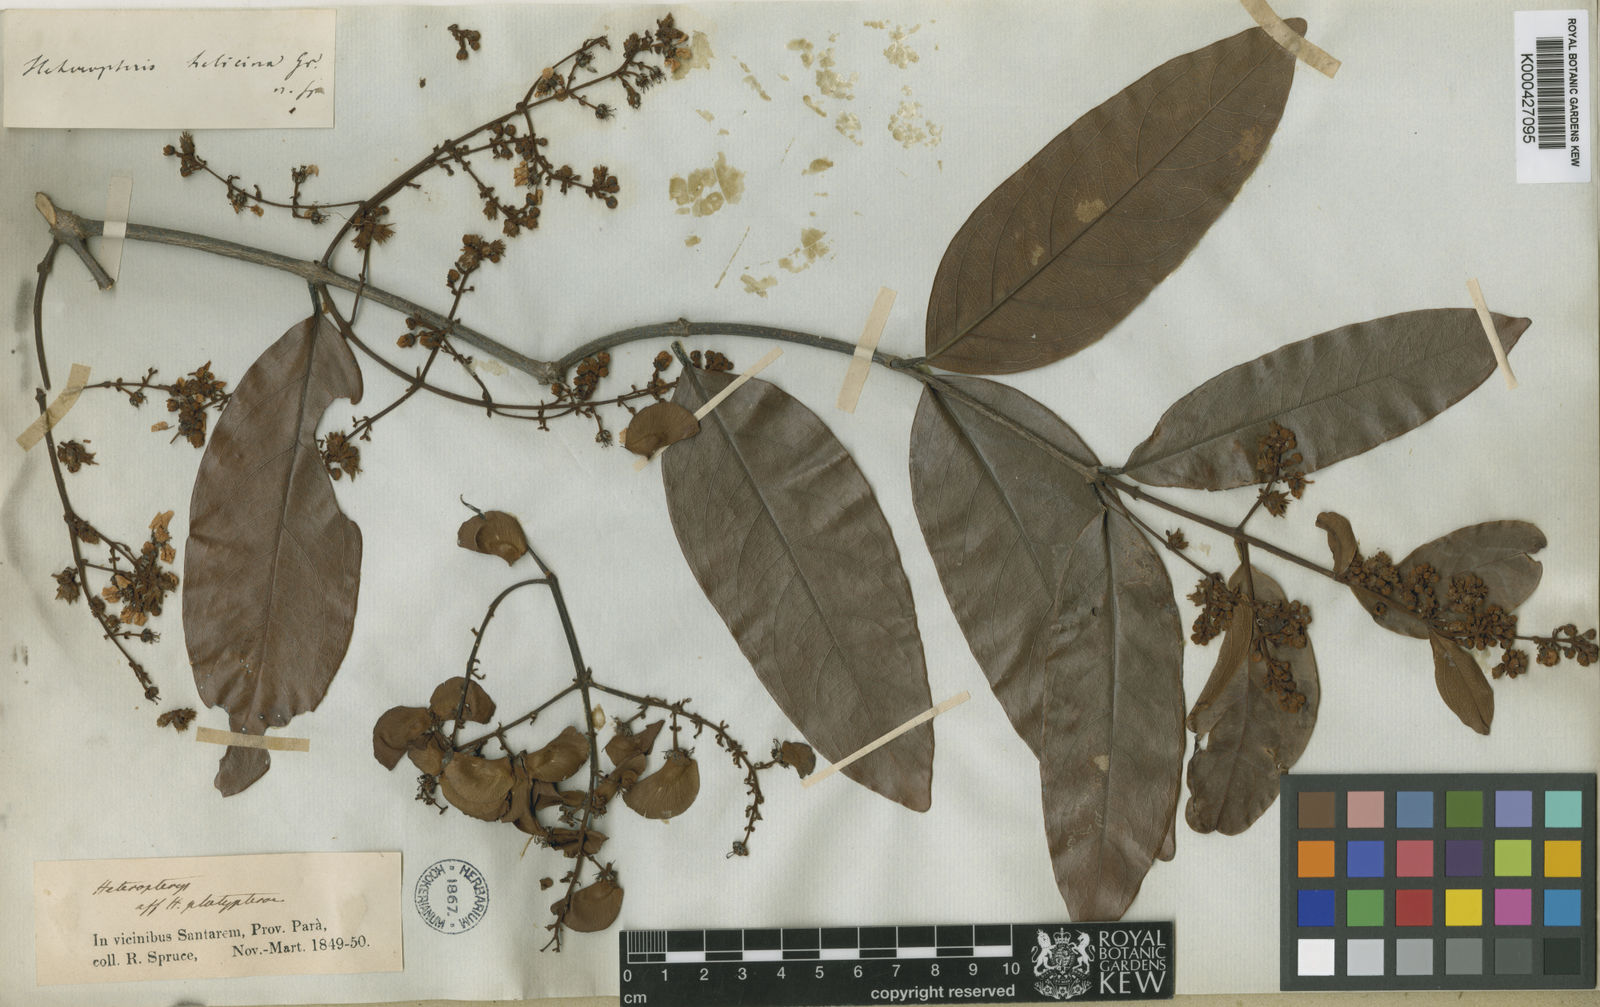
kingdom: Plantae
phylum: Tracheophyta
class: Magnoliopsida
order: Malpighiales
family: Malpighiaceae
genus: Heteropterys
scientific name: Heteropterys orinocensis
